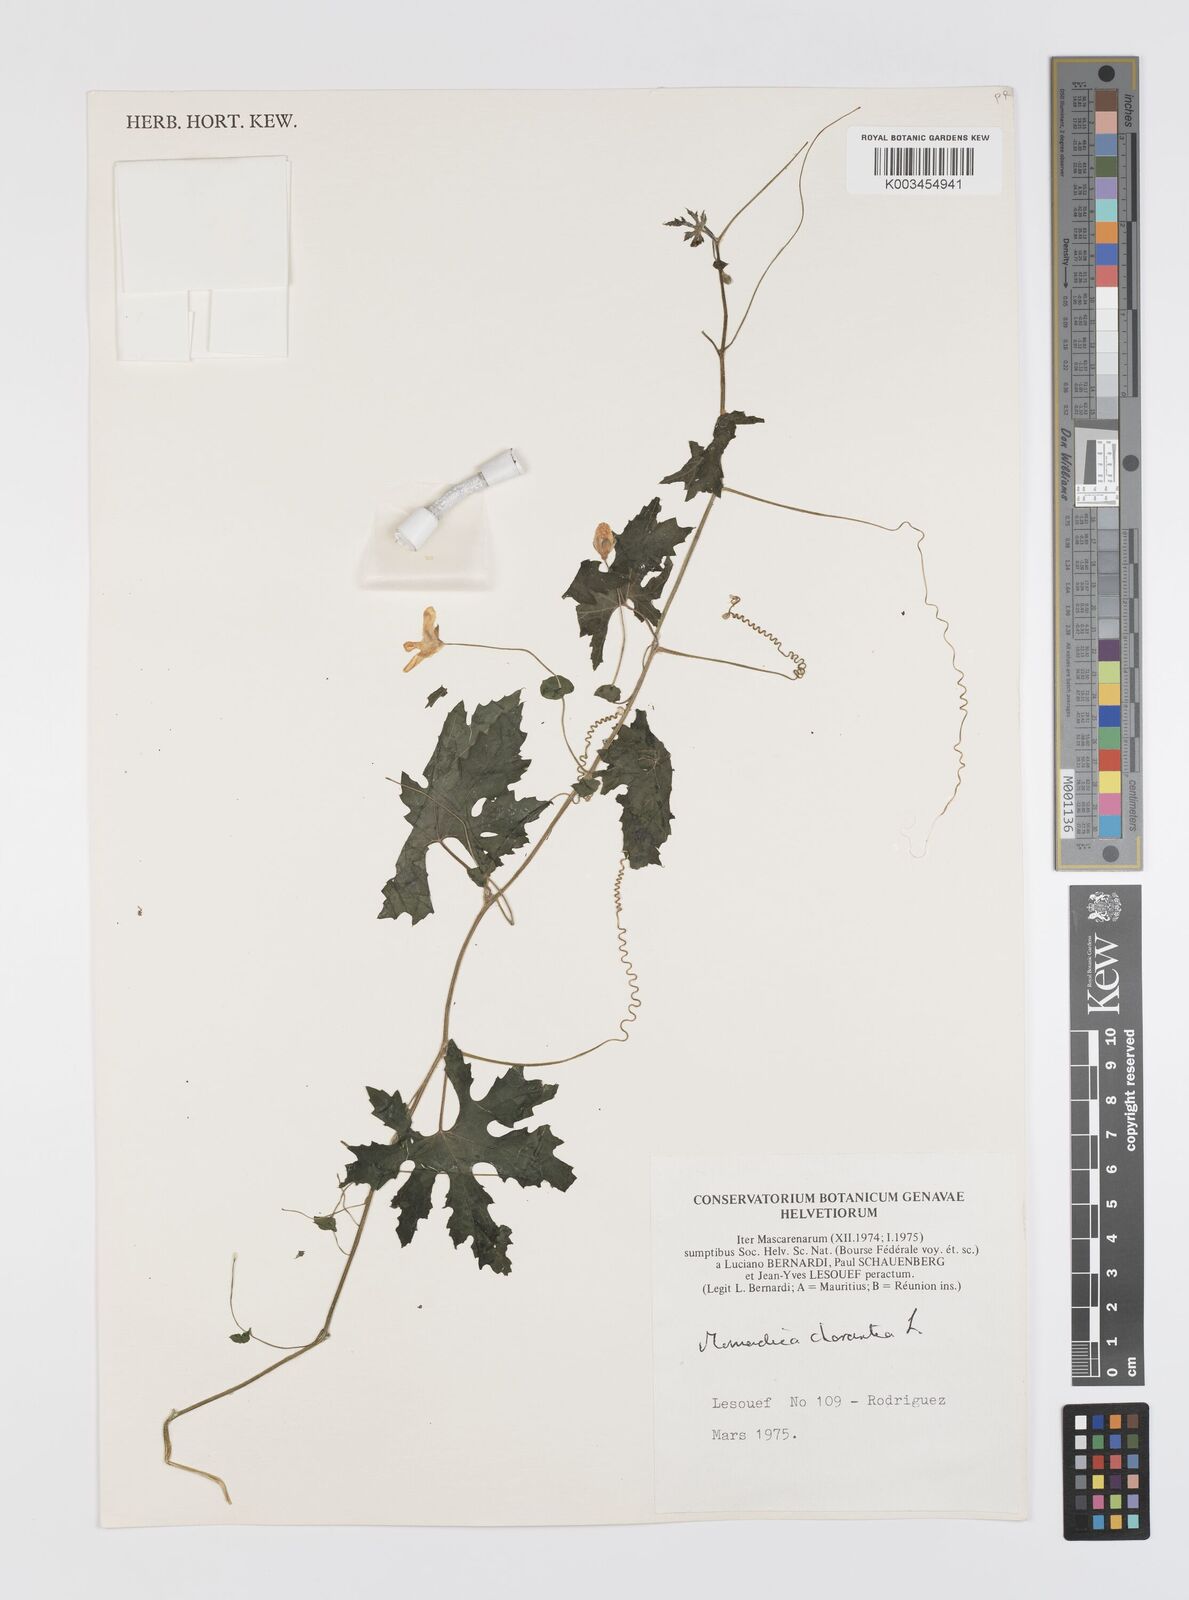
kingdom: Plantae
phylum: Tracheophyta
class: Magnoliopsida
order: Cucurbitales
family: Cucurbitaceae
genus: Momordica
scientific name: Momordica charantia
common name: Balsampear
